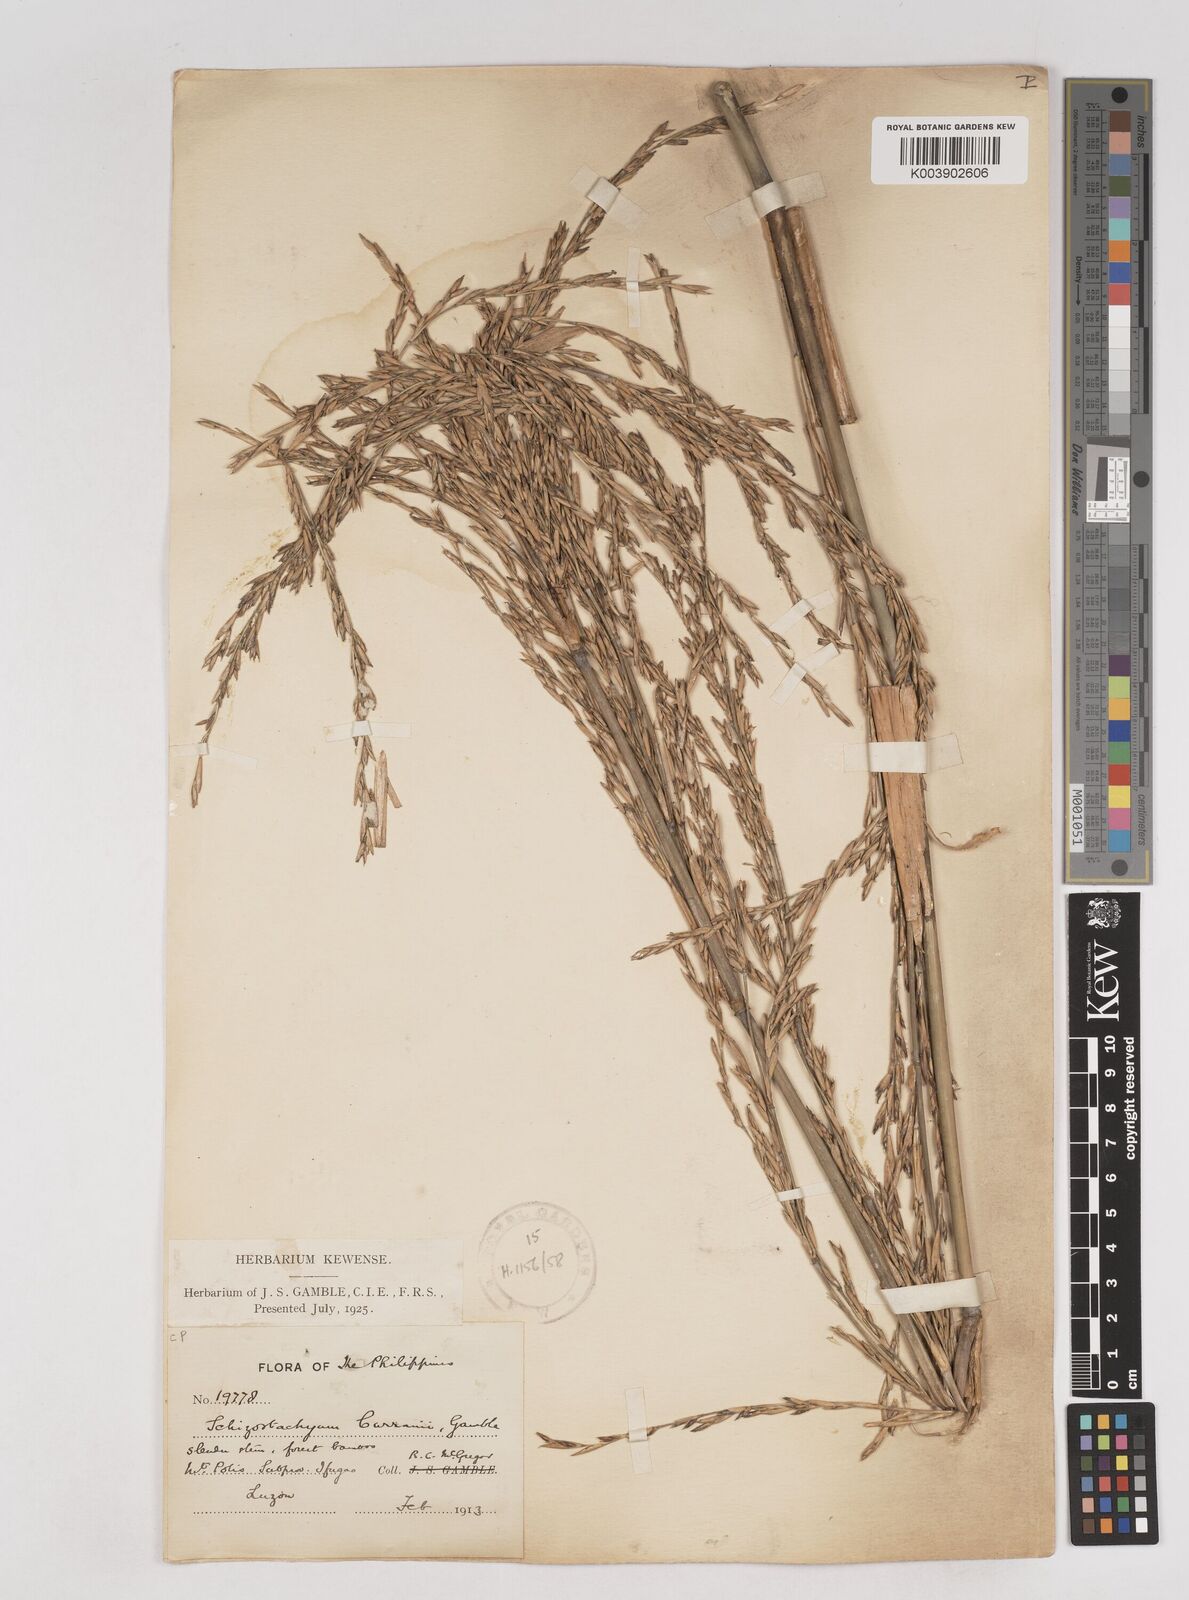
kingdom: Plantae
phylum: Tracheophyta
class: Liliopsida
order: Poales
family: Poaceae
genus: Schizostachyum
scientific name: Schizostachyum curranii
